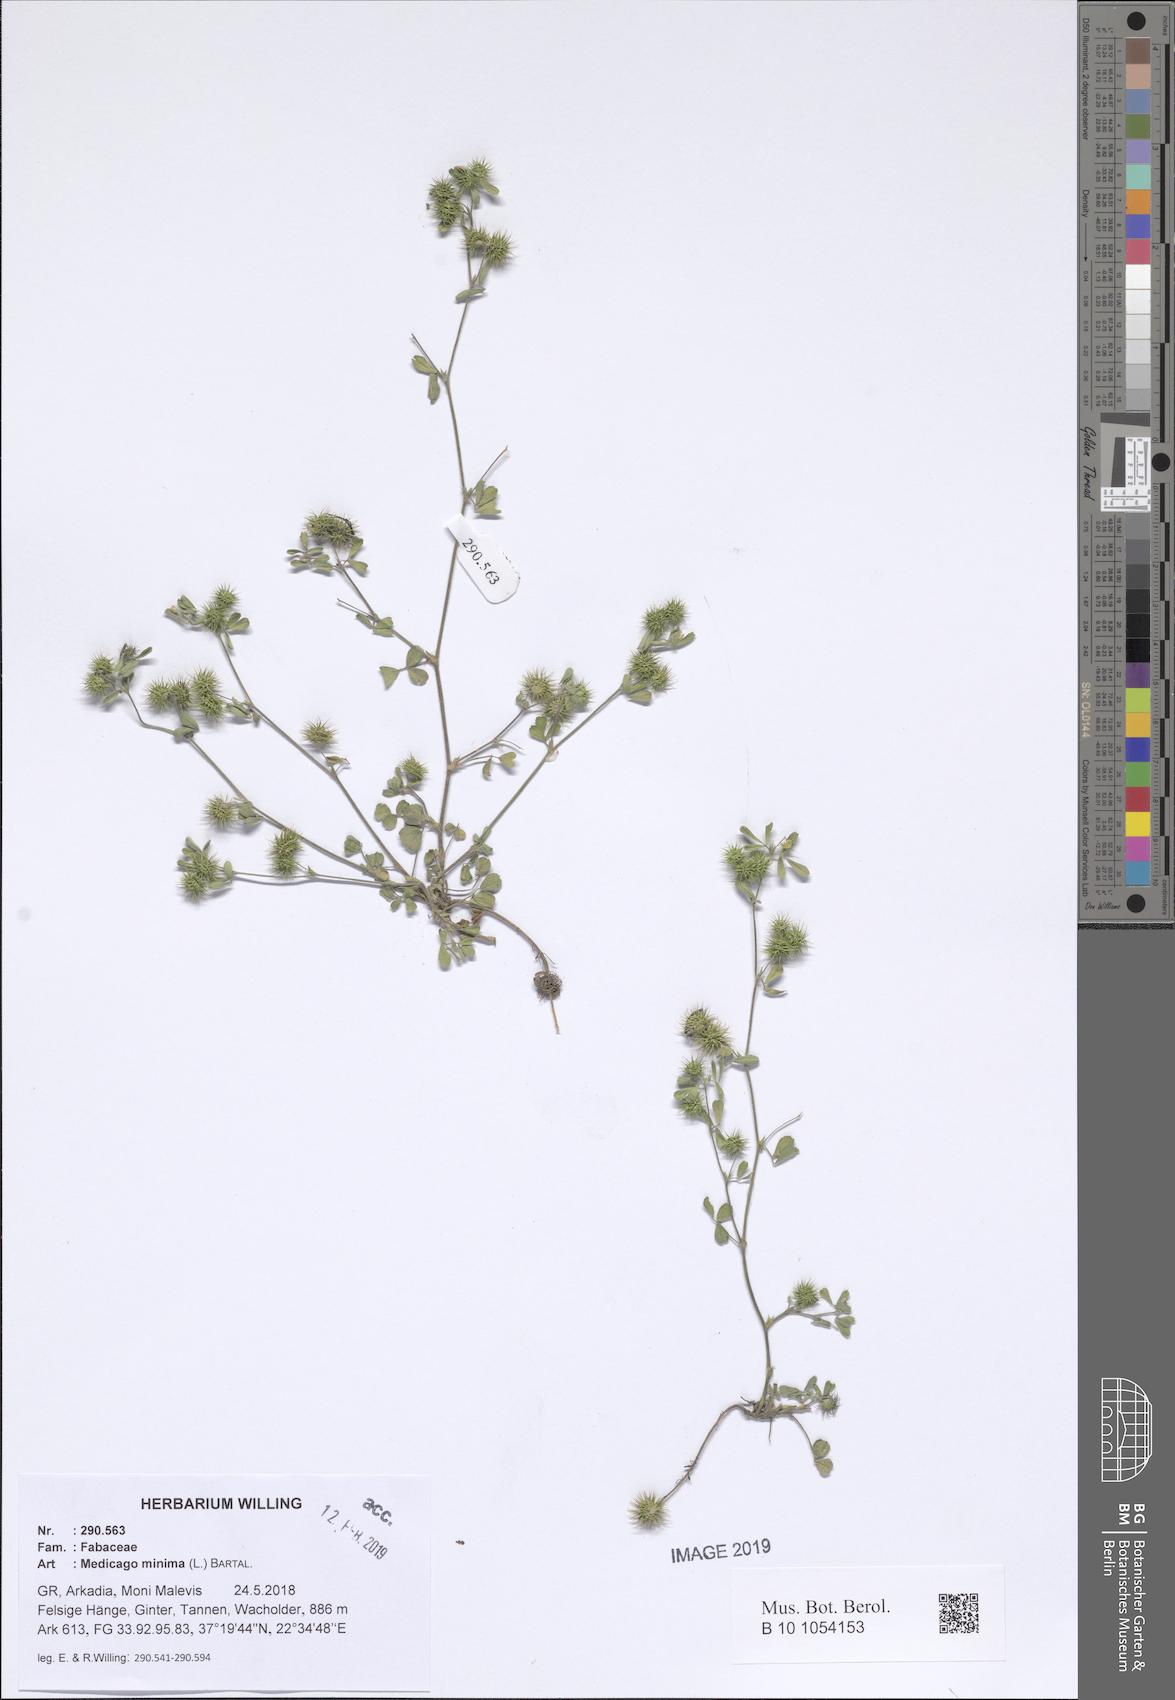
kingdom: Plantae
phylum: Tracheophyta
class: Magnoliopsida
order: Fabales
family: Fabaceae
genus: Medicago
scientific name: Medicago minima
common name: Little bur-clover
